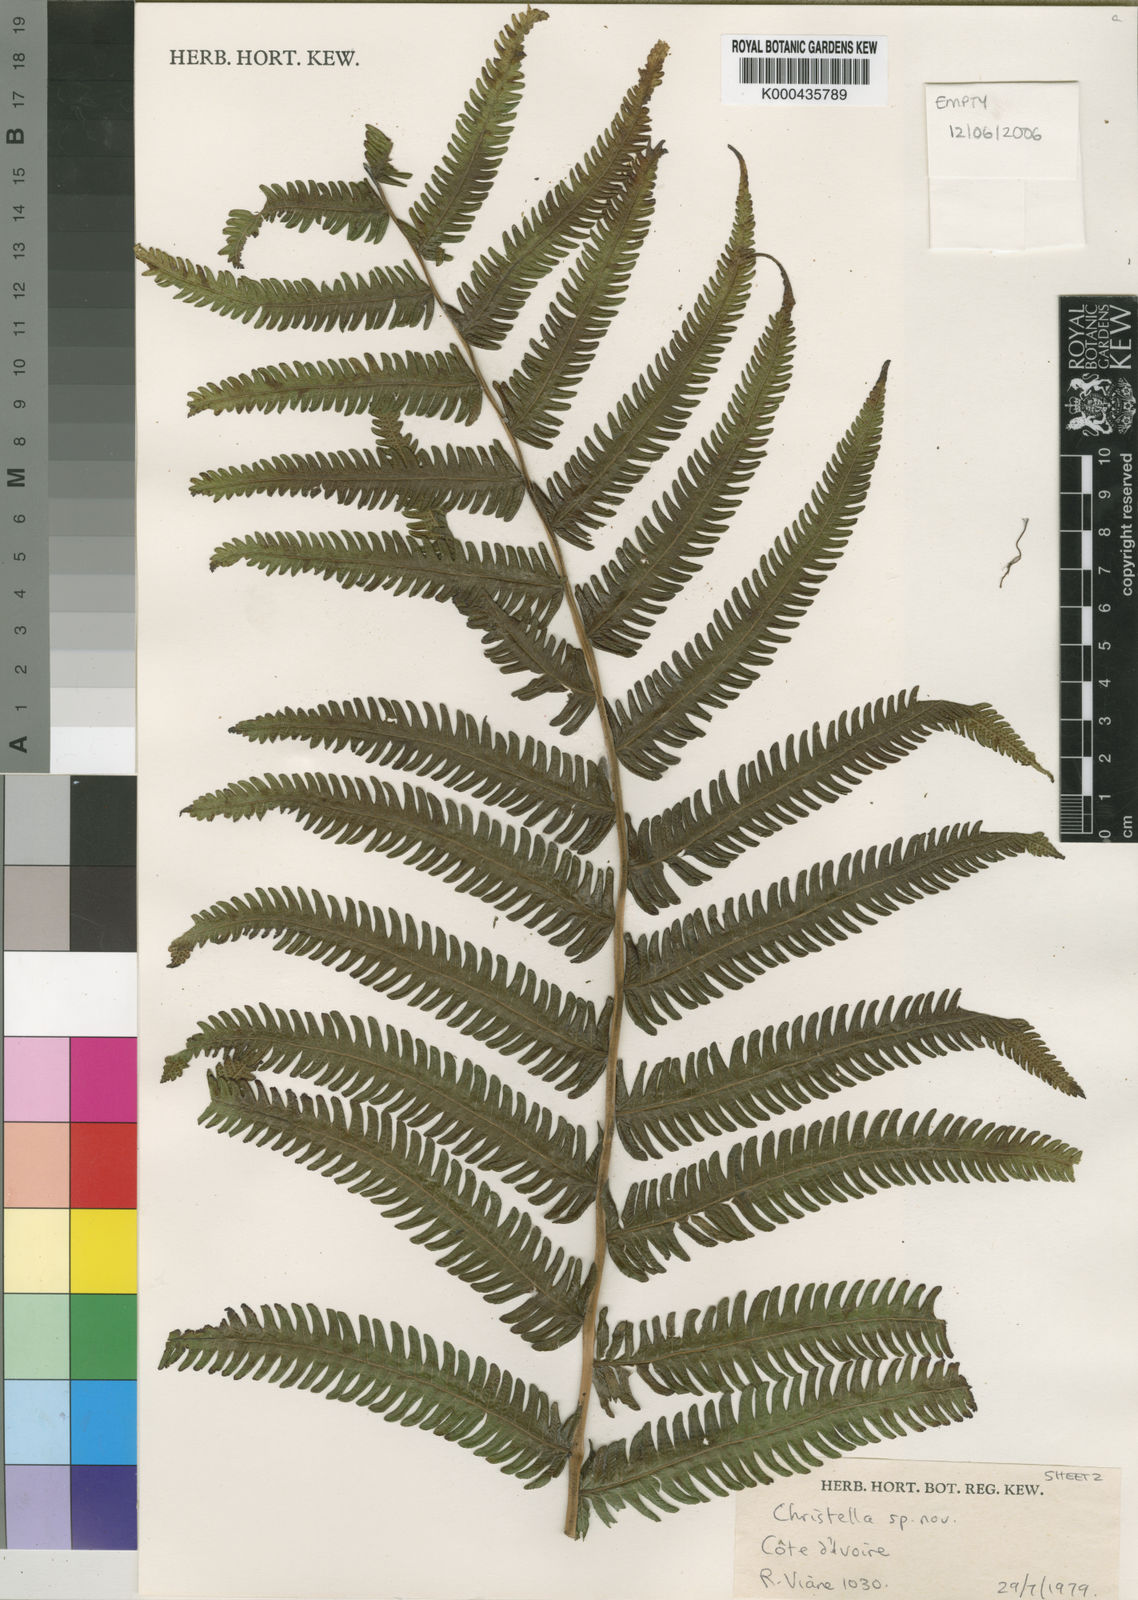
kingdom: Plantae
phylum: Tracheophyta
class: Polypodiopsida
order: Polypodiales
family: Thelypteridaceae
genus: Chrismatopteris
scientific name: Chrismatopteris
